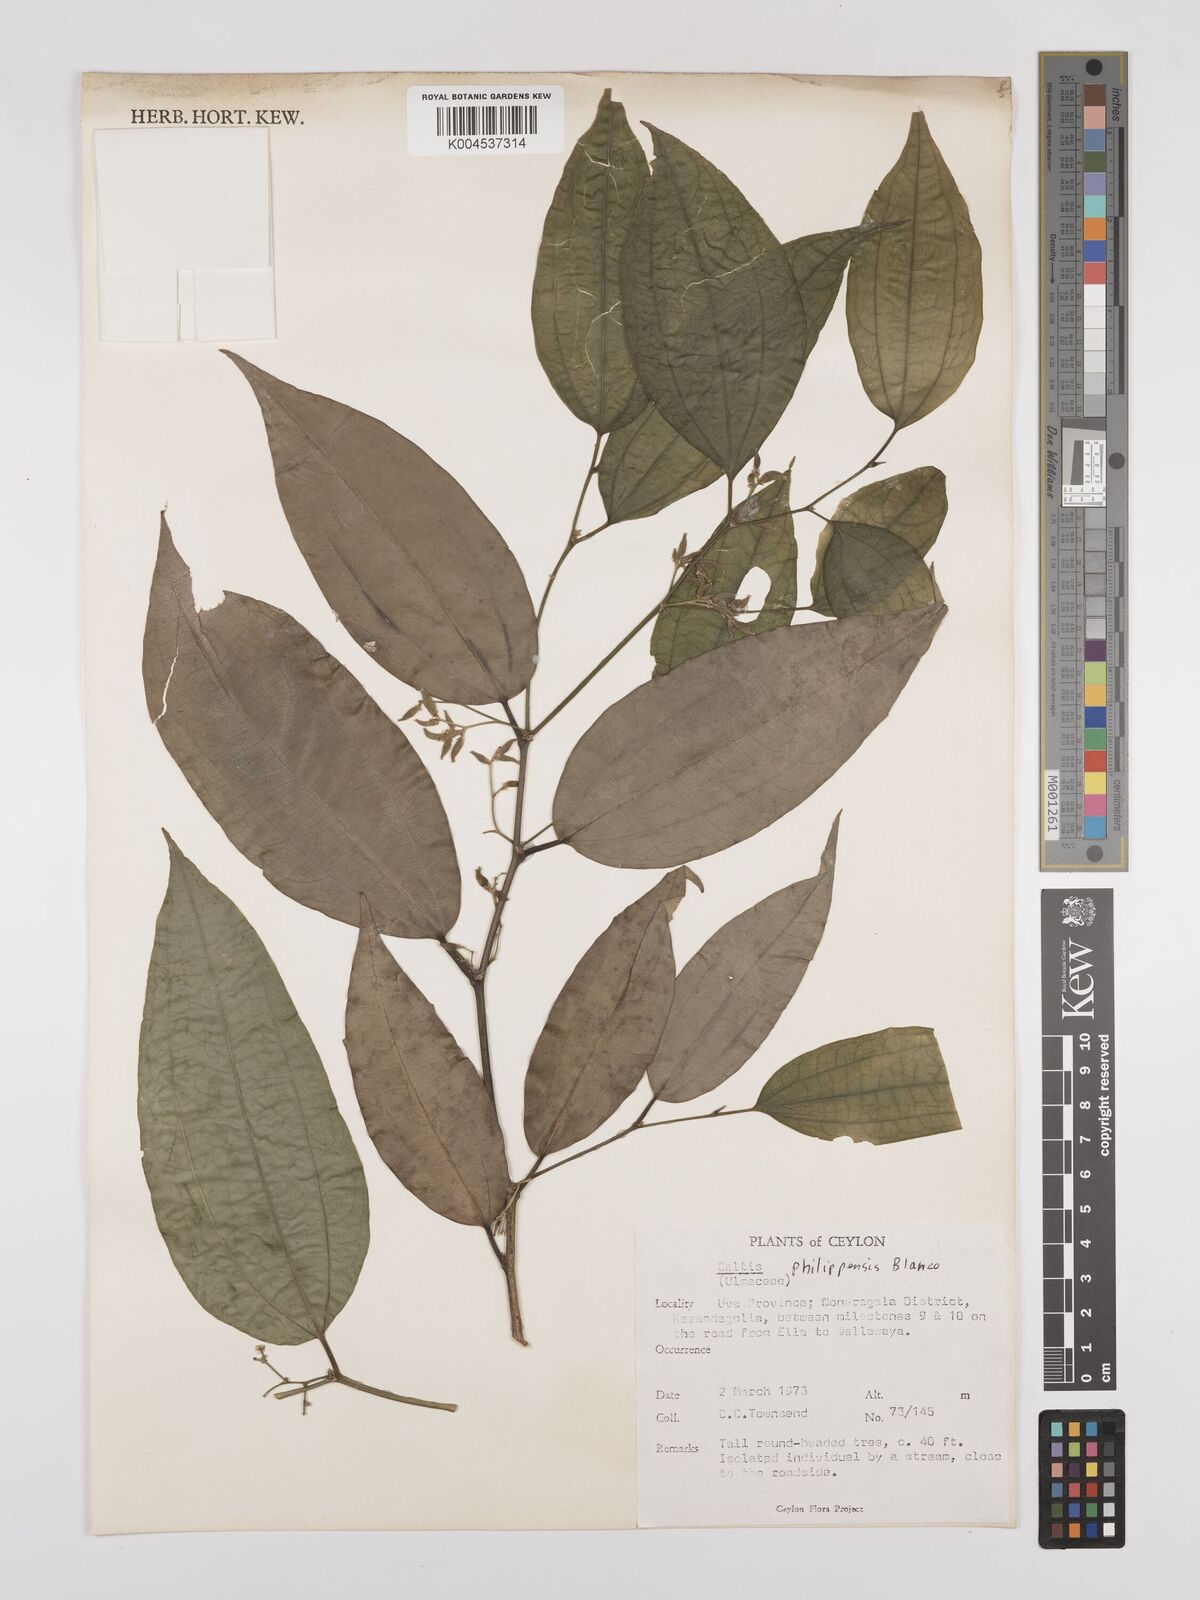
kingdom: Plantae
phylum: Tracheophyta
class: Magnoliopsida
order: Rosales
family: Cannabaceae
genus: Celtis
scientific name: Celtis philippensis
